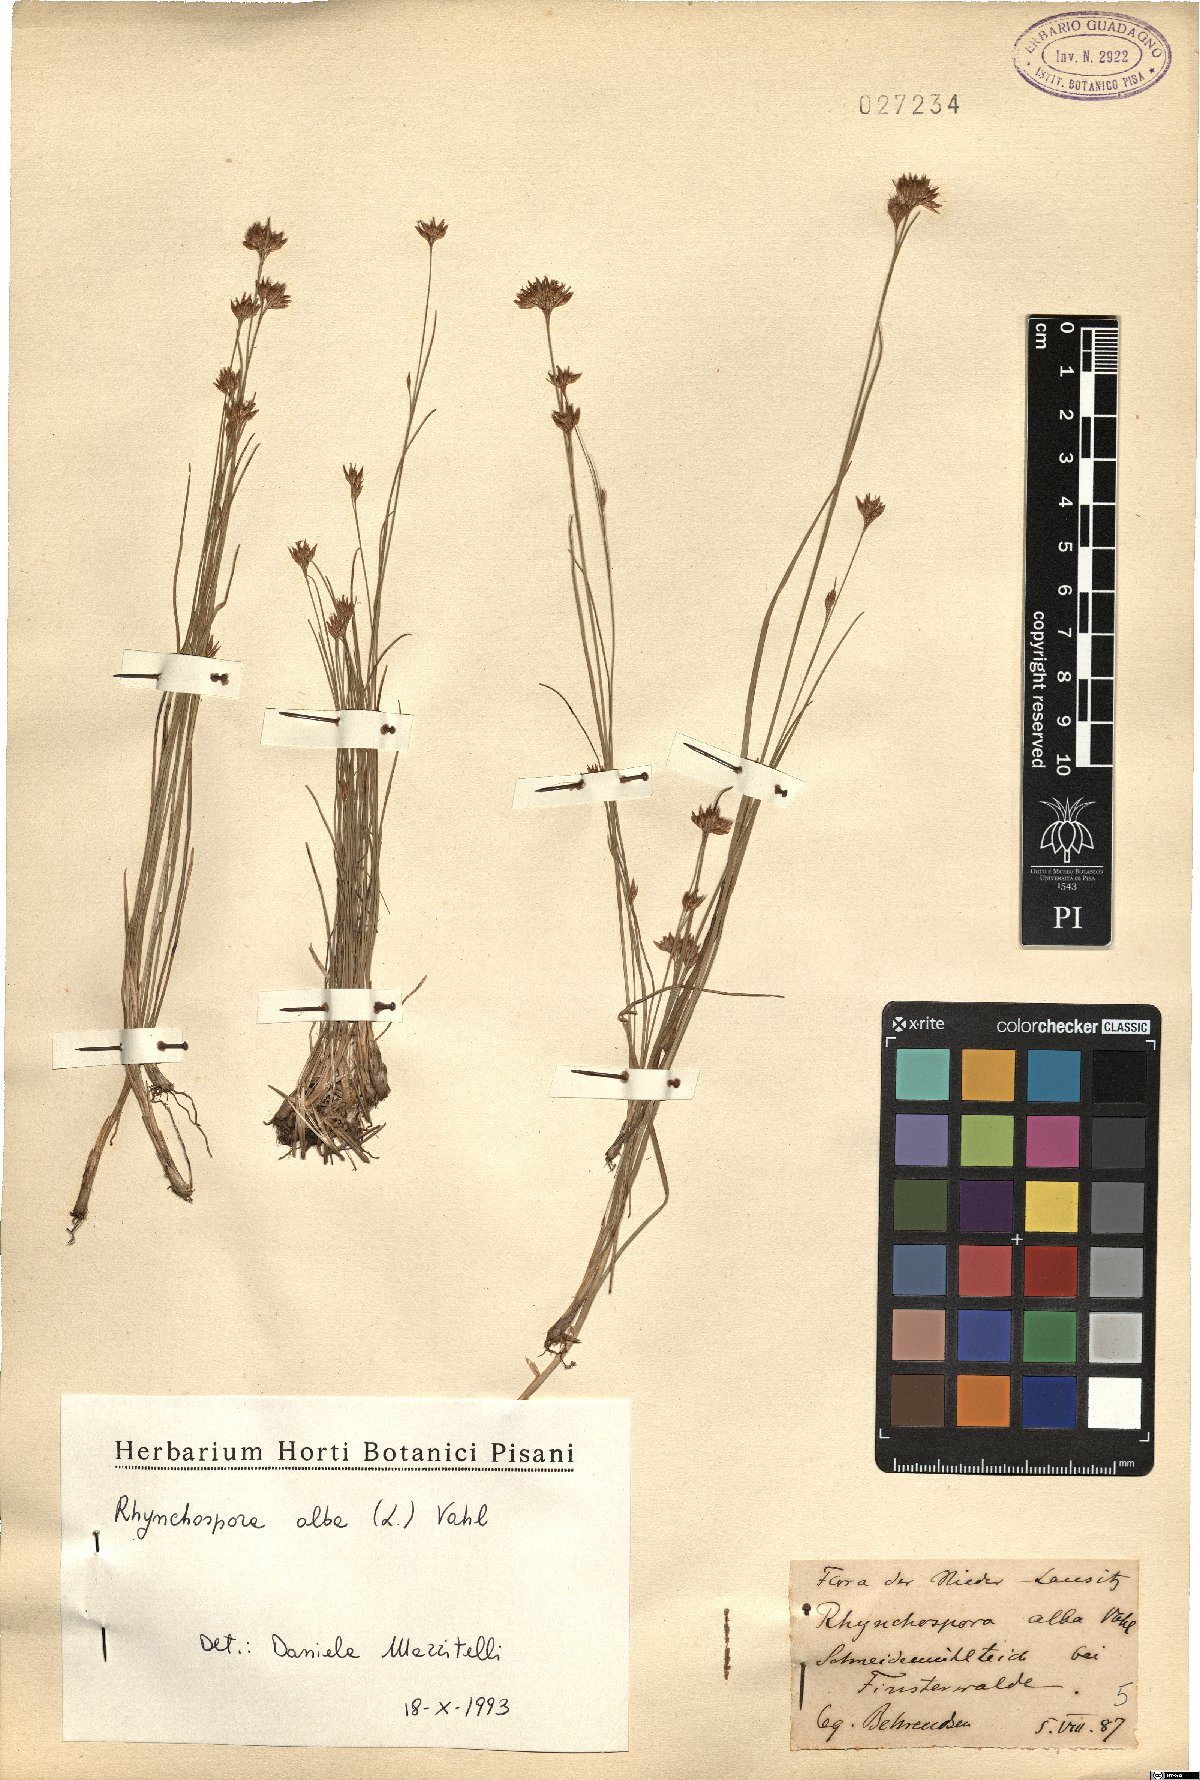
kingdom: Plantae
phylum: Tracheophyta
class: Liliopsida
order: Poales
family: Cyperaceae
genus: Rhynchospora
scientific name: Rhynchospora alba
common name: White beak-sedge
